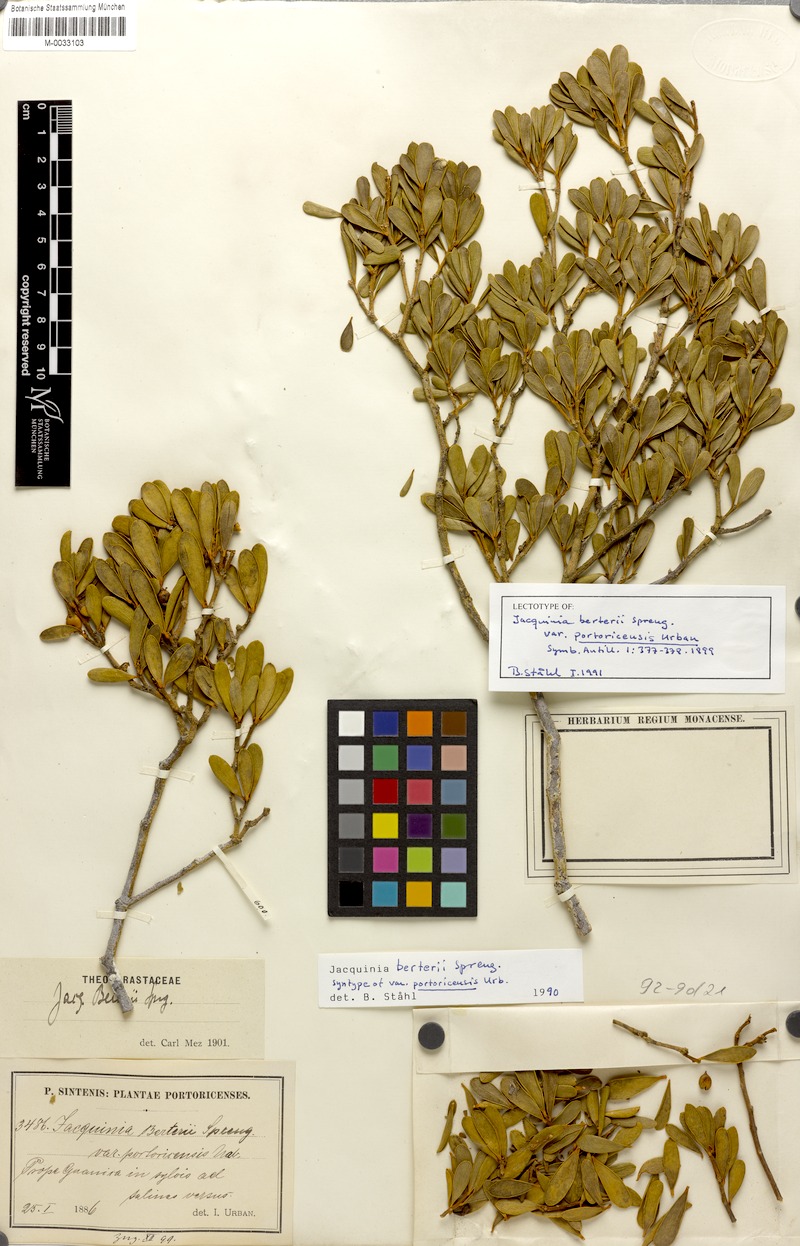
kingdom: Plantae
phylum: Tracheophyta
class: Magnoliopsida
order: Ericales
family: Primulaceae
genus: Jacquinia
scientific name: Jacquinia berteroi
